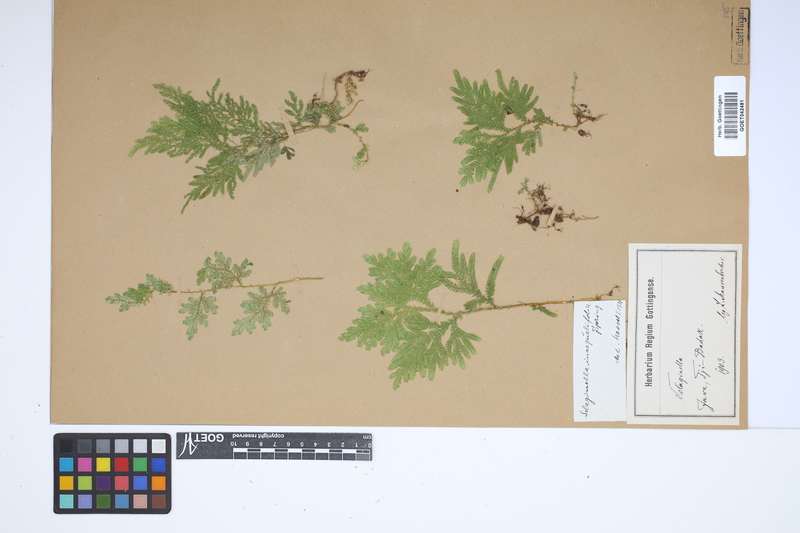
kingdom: Plantae
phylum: Tracheophyta
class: Lycopodiopsida
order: Selaginellales
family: Selaginellaceae
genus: Selaginella
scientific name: Selaginella inaequalifolia
